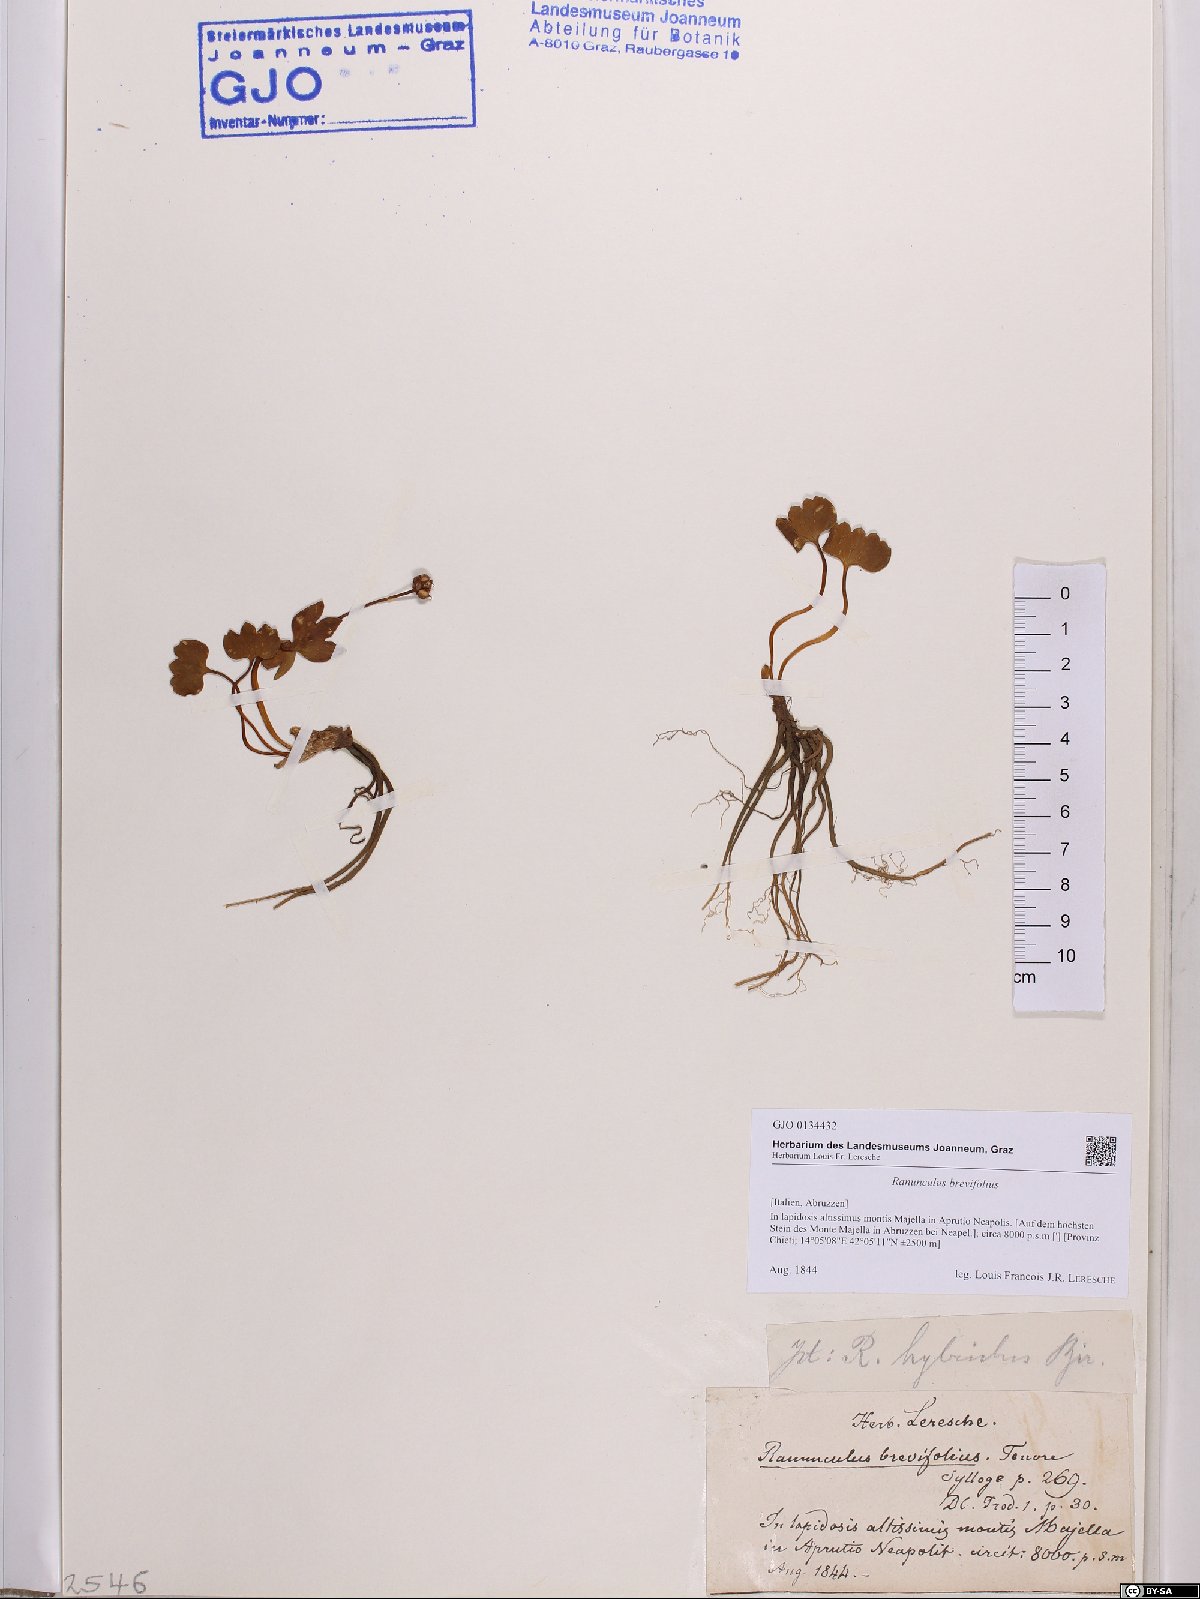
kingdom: Plantae
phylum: Tracheophyta
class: Magnoliopsida
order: Ranunculales
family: Ranunculaceae
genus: Ranunculus
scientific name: Ranunculus brevifolius
